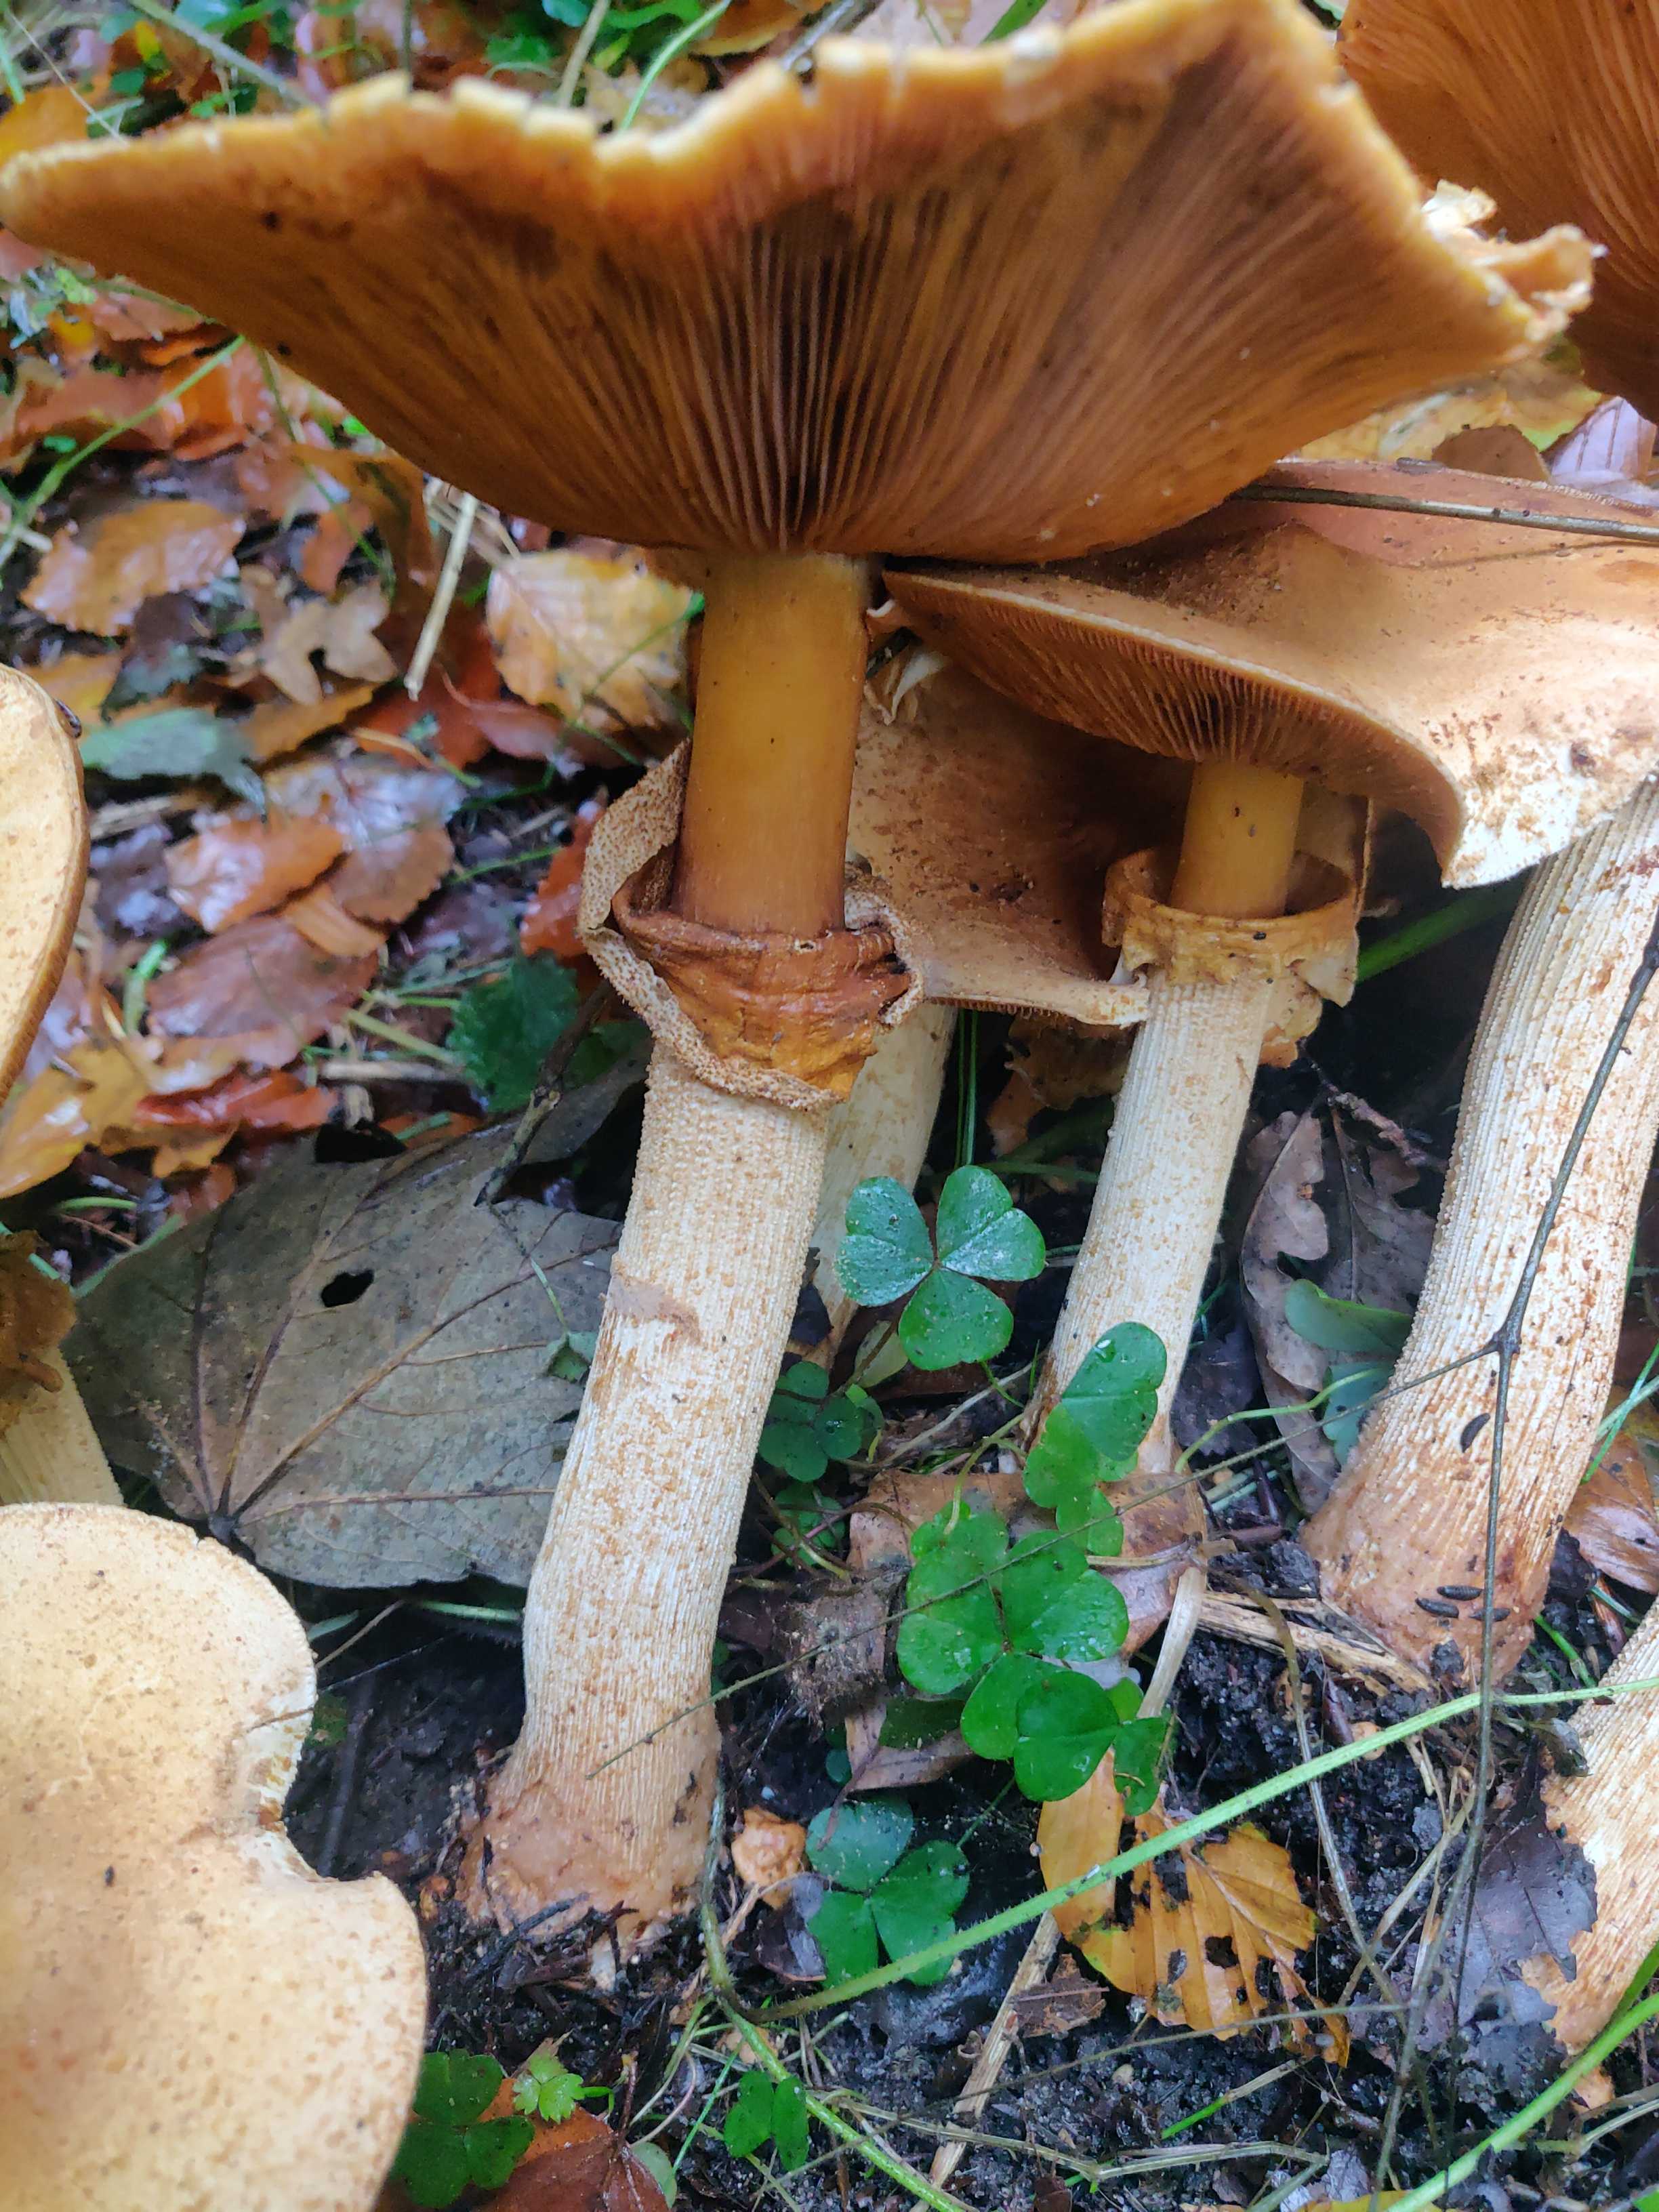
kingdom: Fungi
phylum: Basidiomycota
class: Agaricomycetes
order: Agaricales
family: Tricholomataceae
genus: Phaeolepiota
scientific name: Phaeolepiota aurea
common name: gyldenhat
